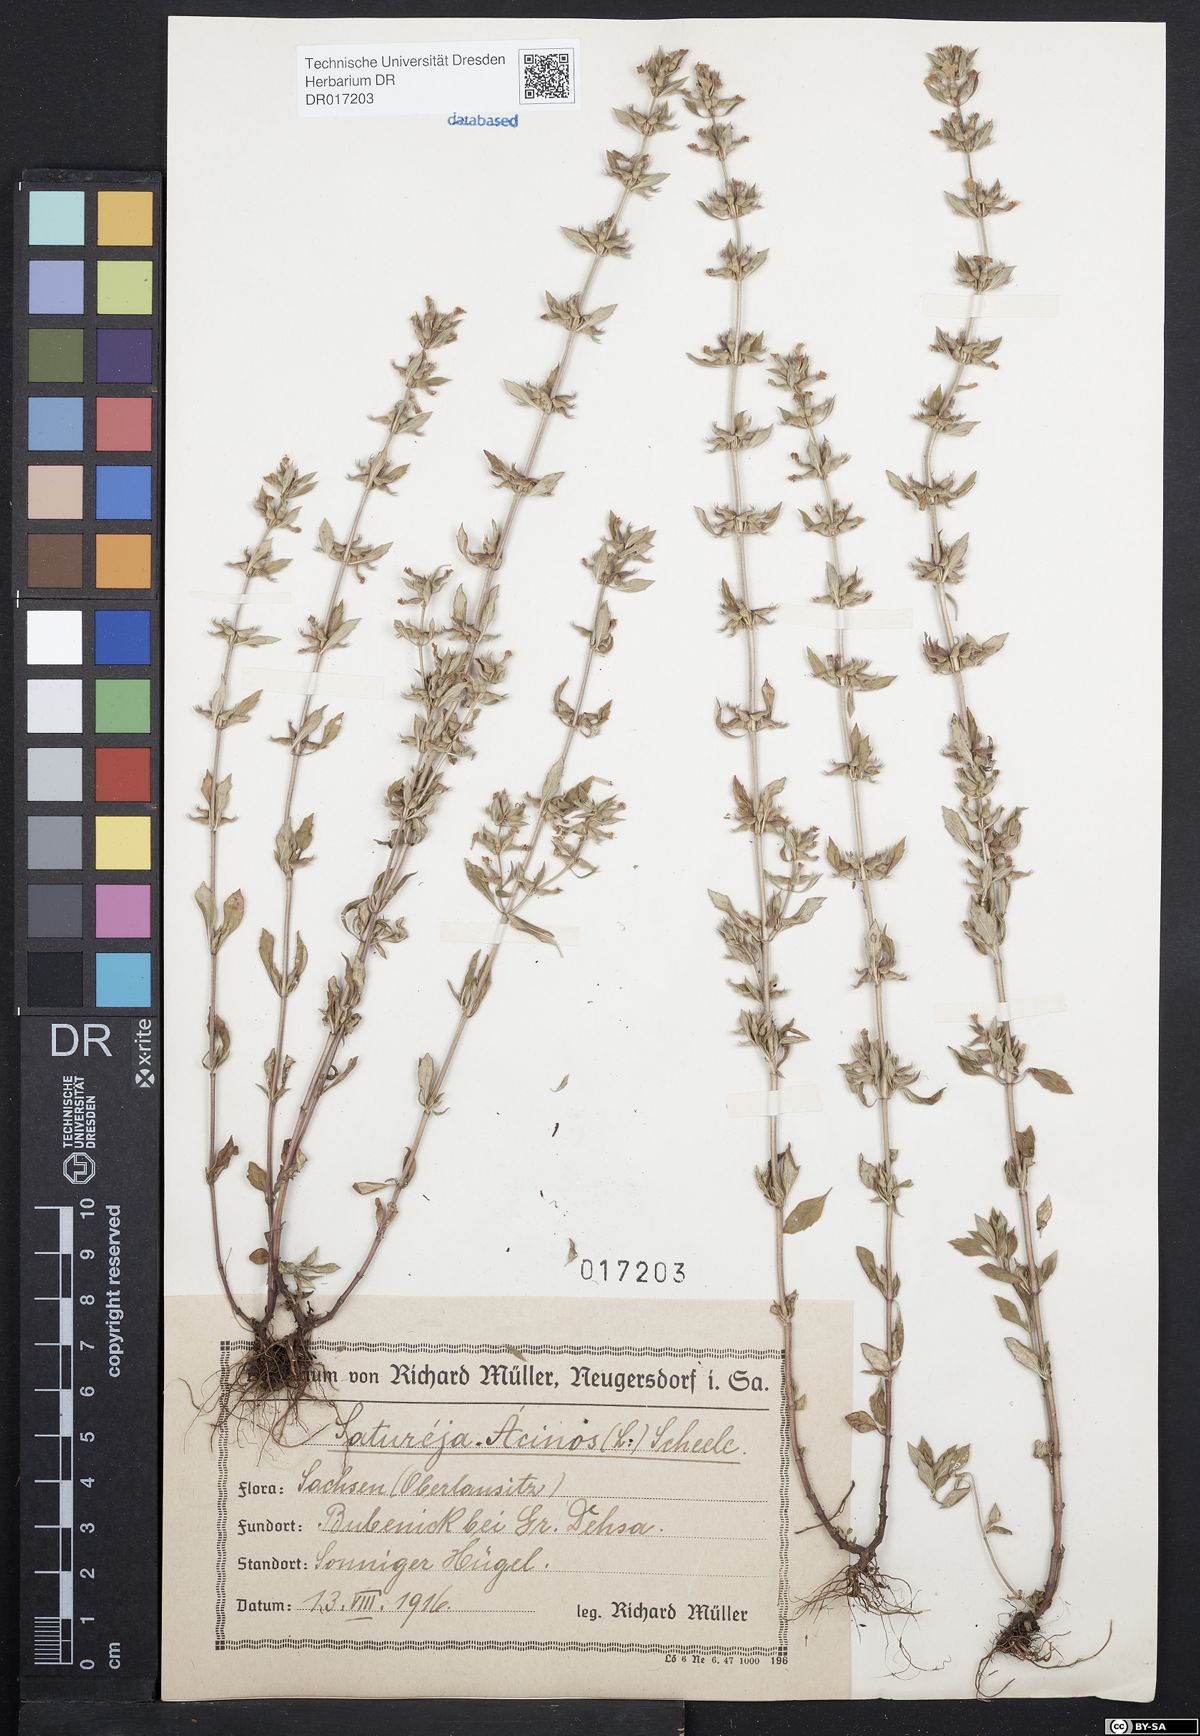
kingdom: Plantae
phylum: Tracheophyta
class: Magnoliopsida
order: Lamiales
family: Lamiaceae
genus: Clinopodium
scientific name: Clinopodium acinos
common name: Basil thyme
